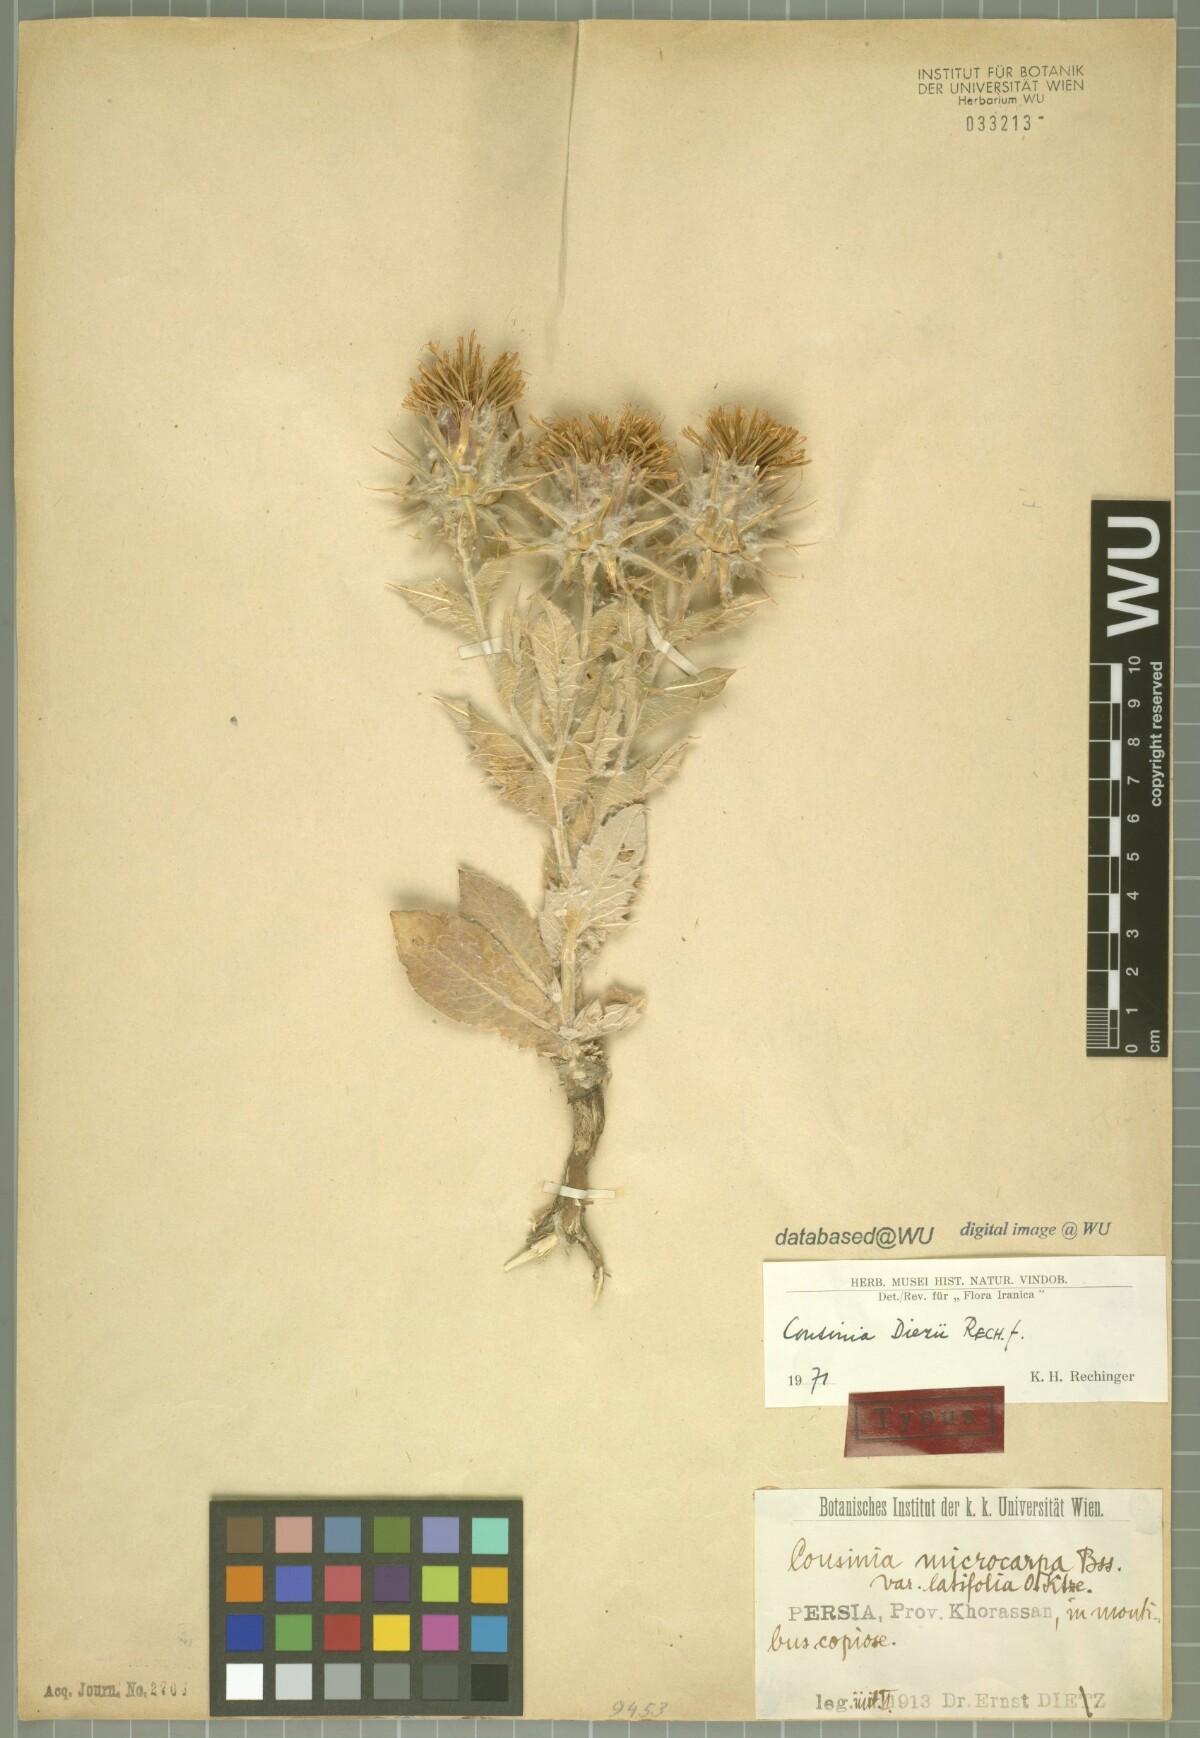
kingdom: Plantae
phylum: Tracheophyta
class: Magnoliopsida
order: Asterales
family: Asteraceae
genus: Cousinia
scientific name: Cousinia diezii
